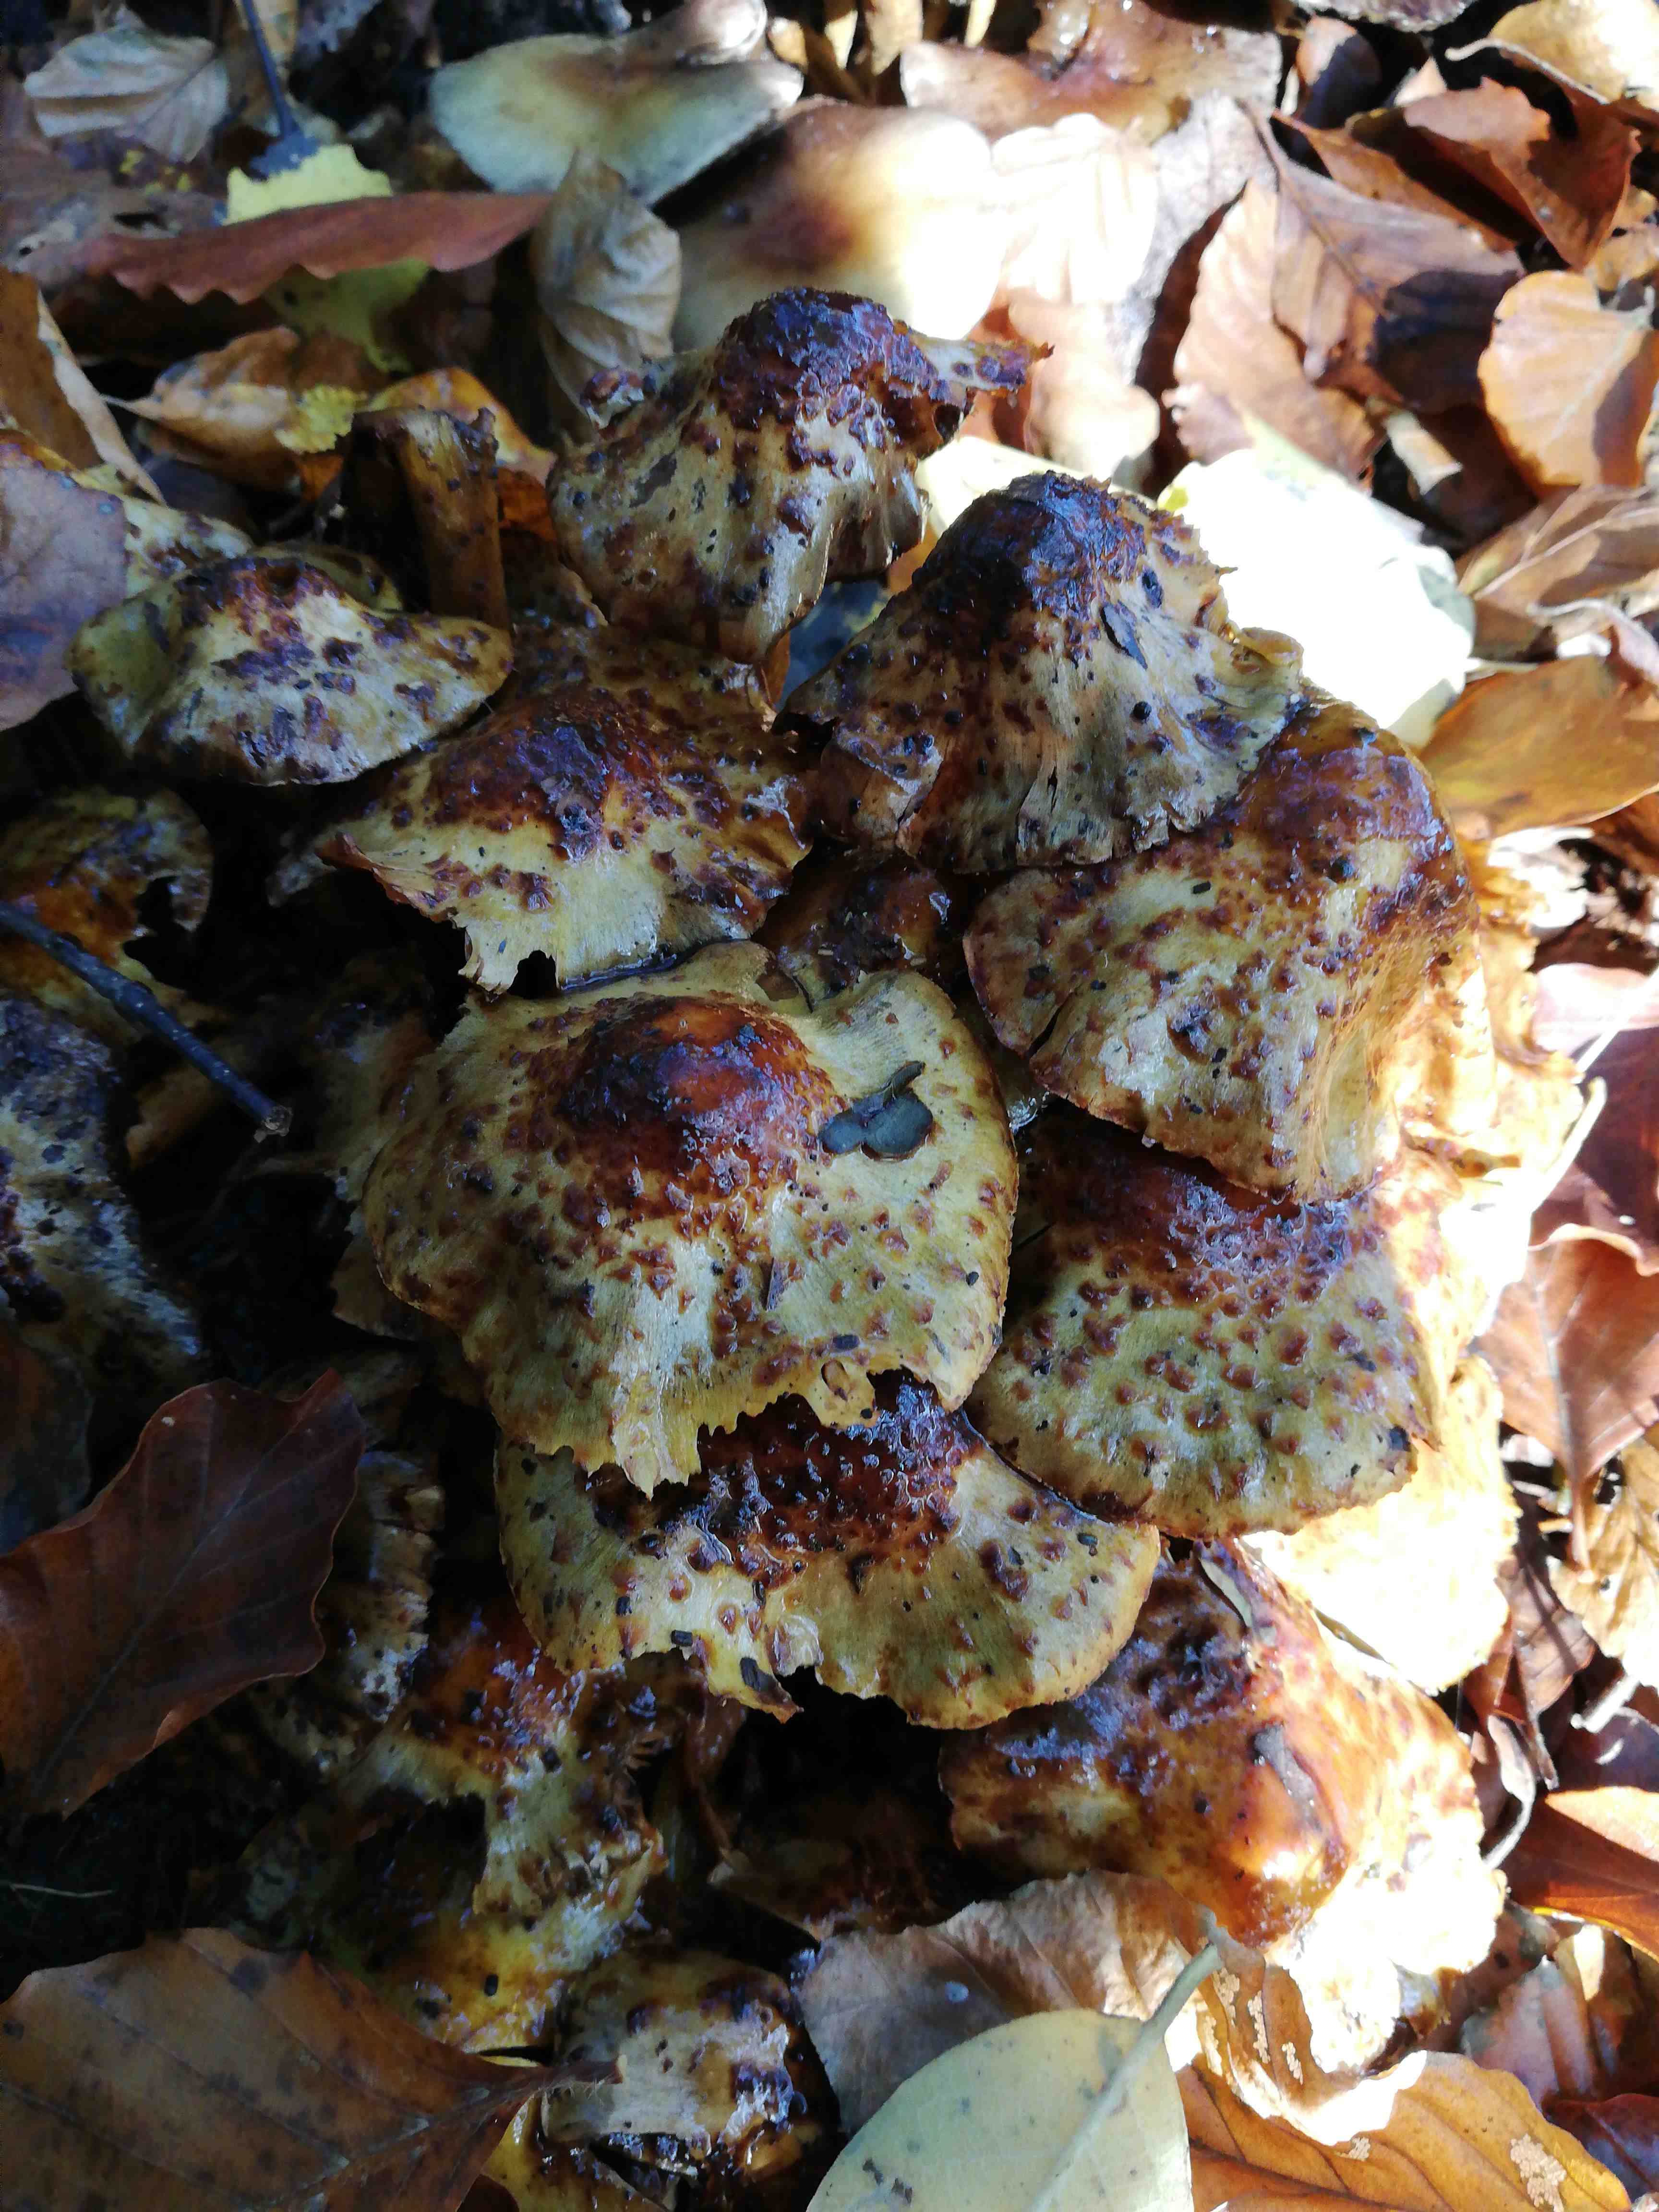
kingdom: Fungi
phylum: Basidiomycota
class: Agaricomycetes
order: Agaricales
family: Strophariaceae
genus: Pholiota
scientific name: Pholiota
